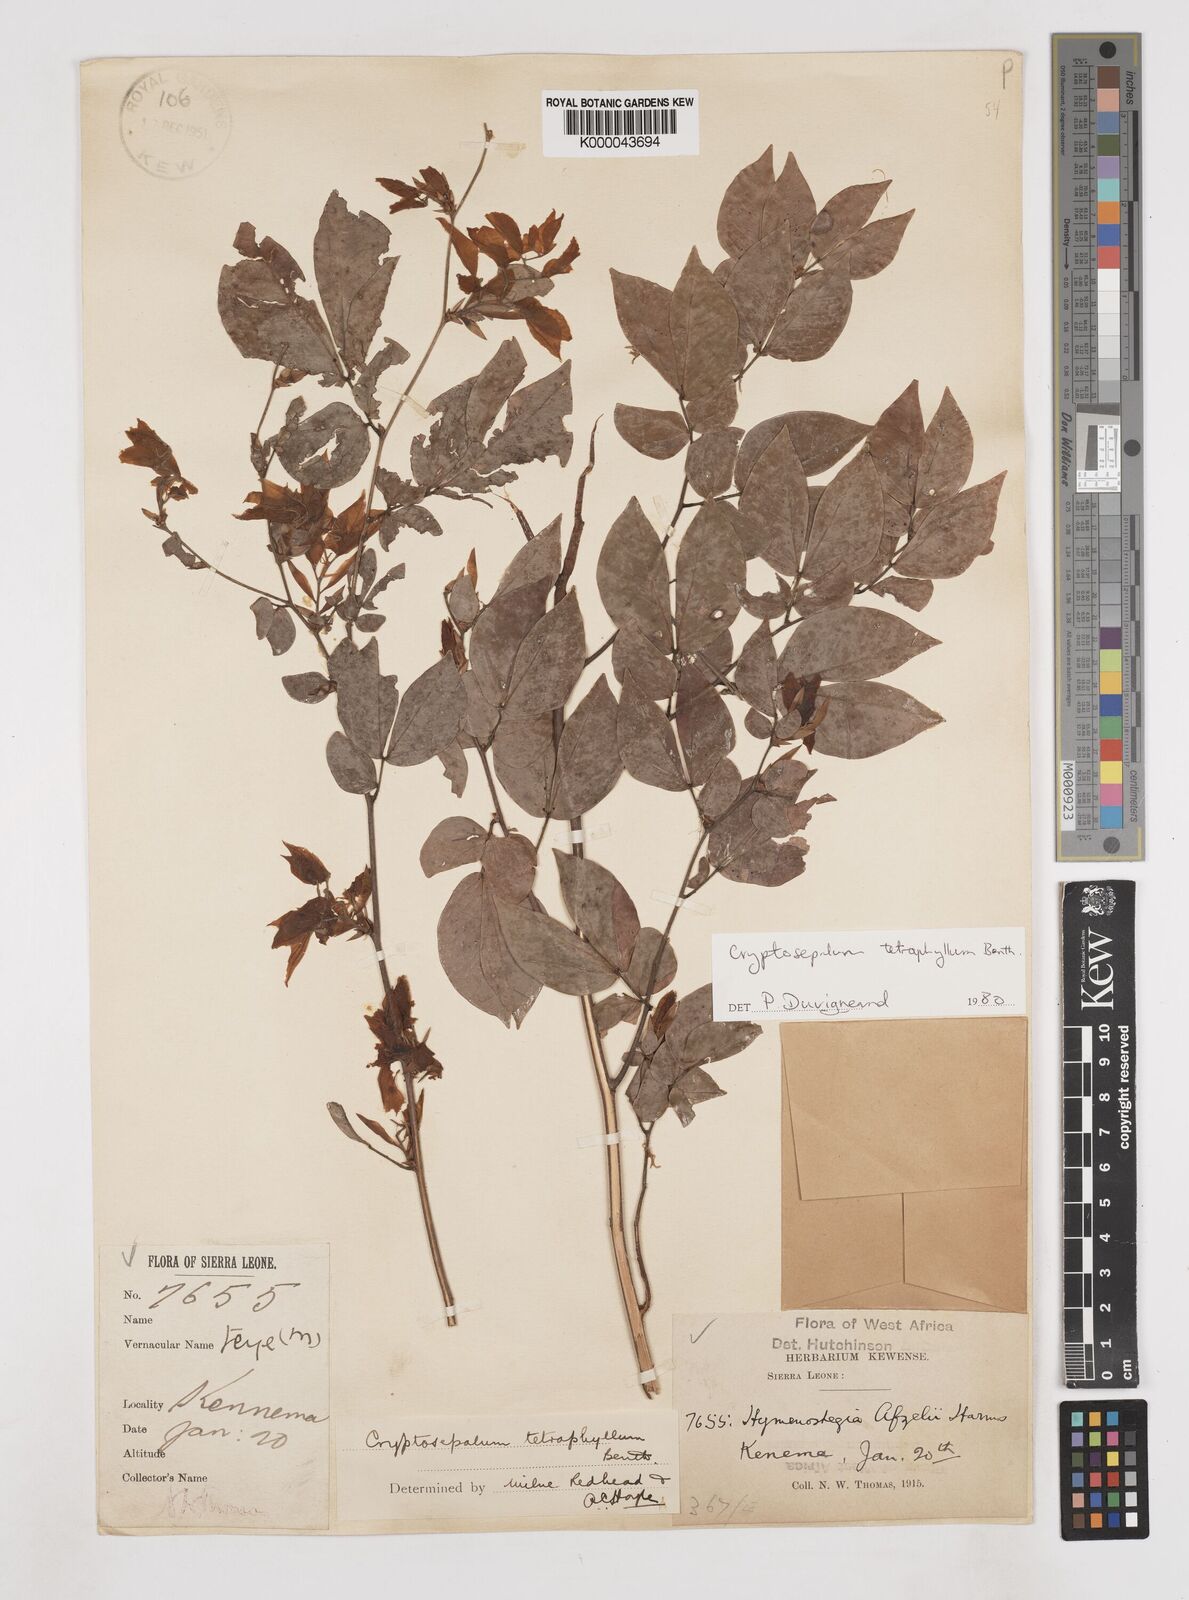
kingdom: Plantae
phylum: Tracheophyta
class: Magnoliopsida
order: Fabales
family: Fabaceae
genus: Cryptosepalum
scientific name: Cryptosepalum tetraphyllum
